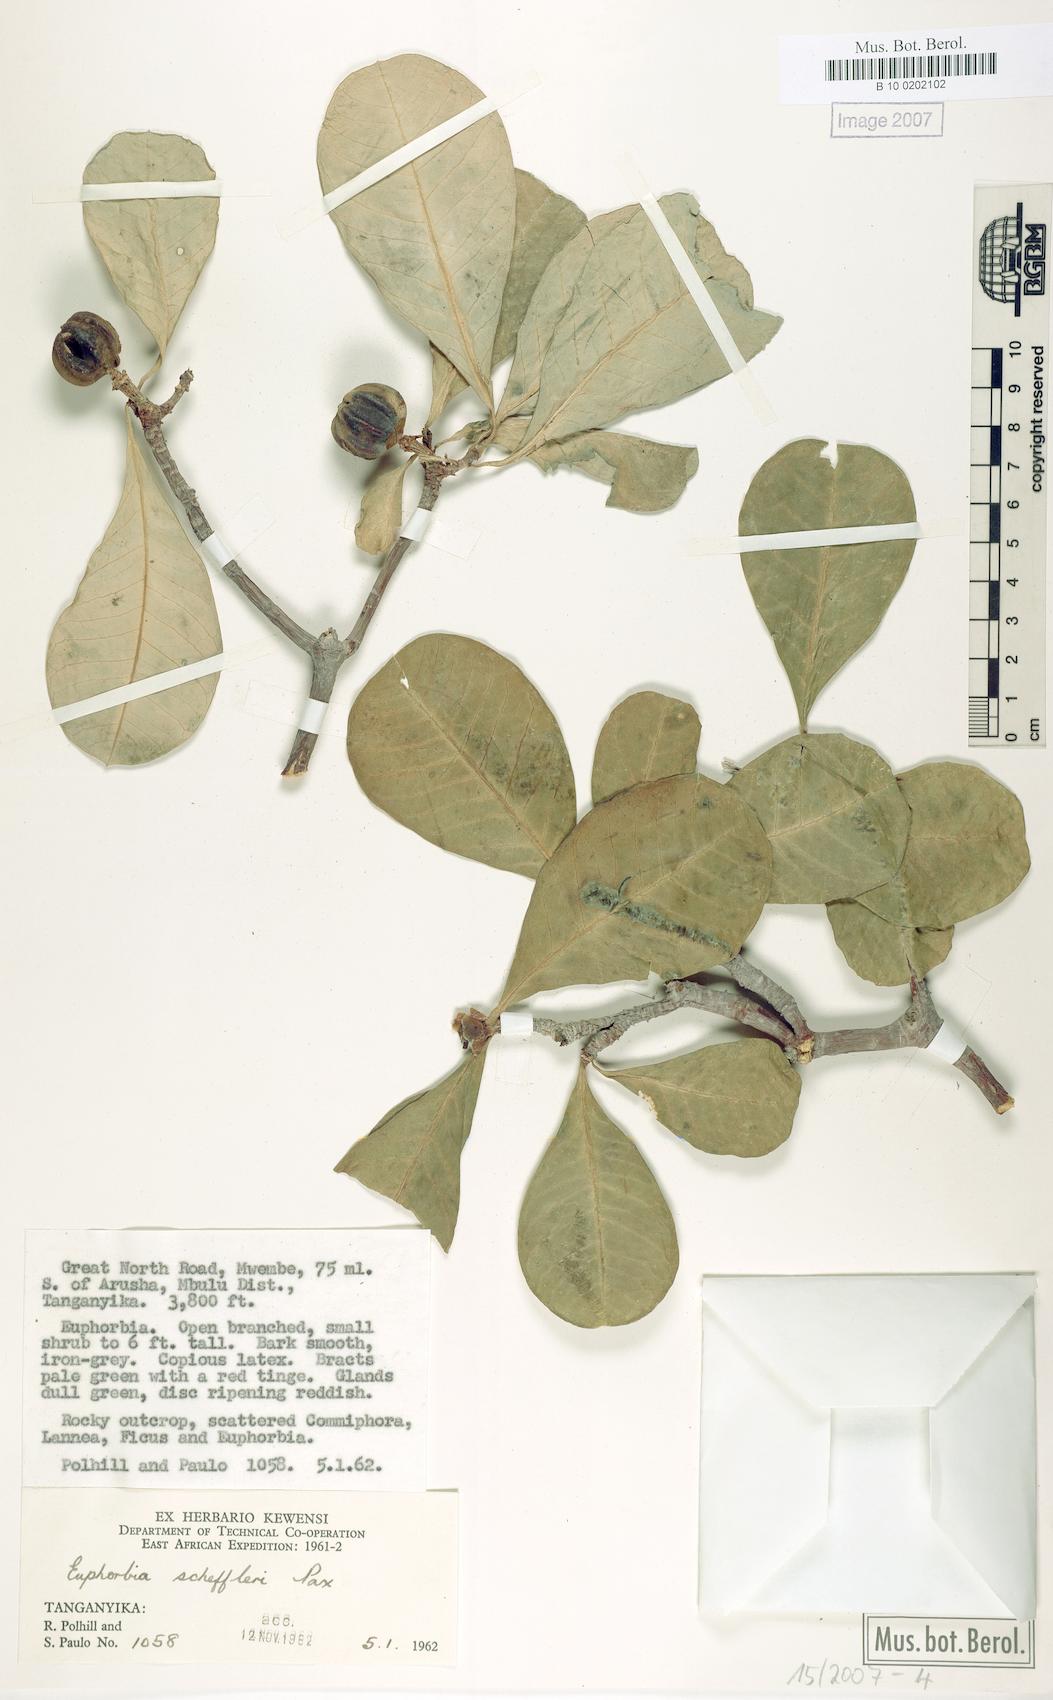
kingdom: Plantae
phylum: Tracheophyta
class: Magnoliopsida
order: Malpighiales
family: Euphorbiaceae
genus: Euphorbia
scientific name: Euphorbia scheffleri
